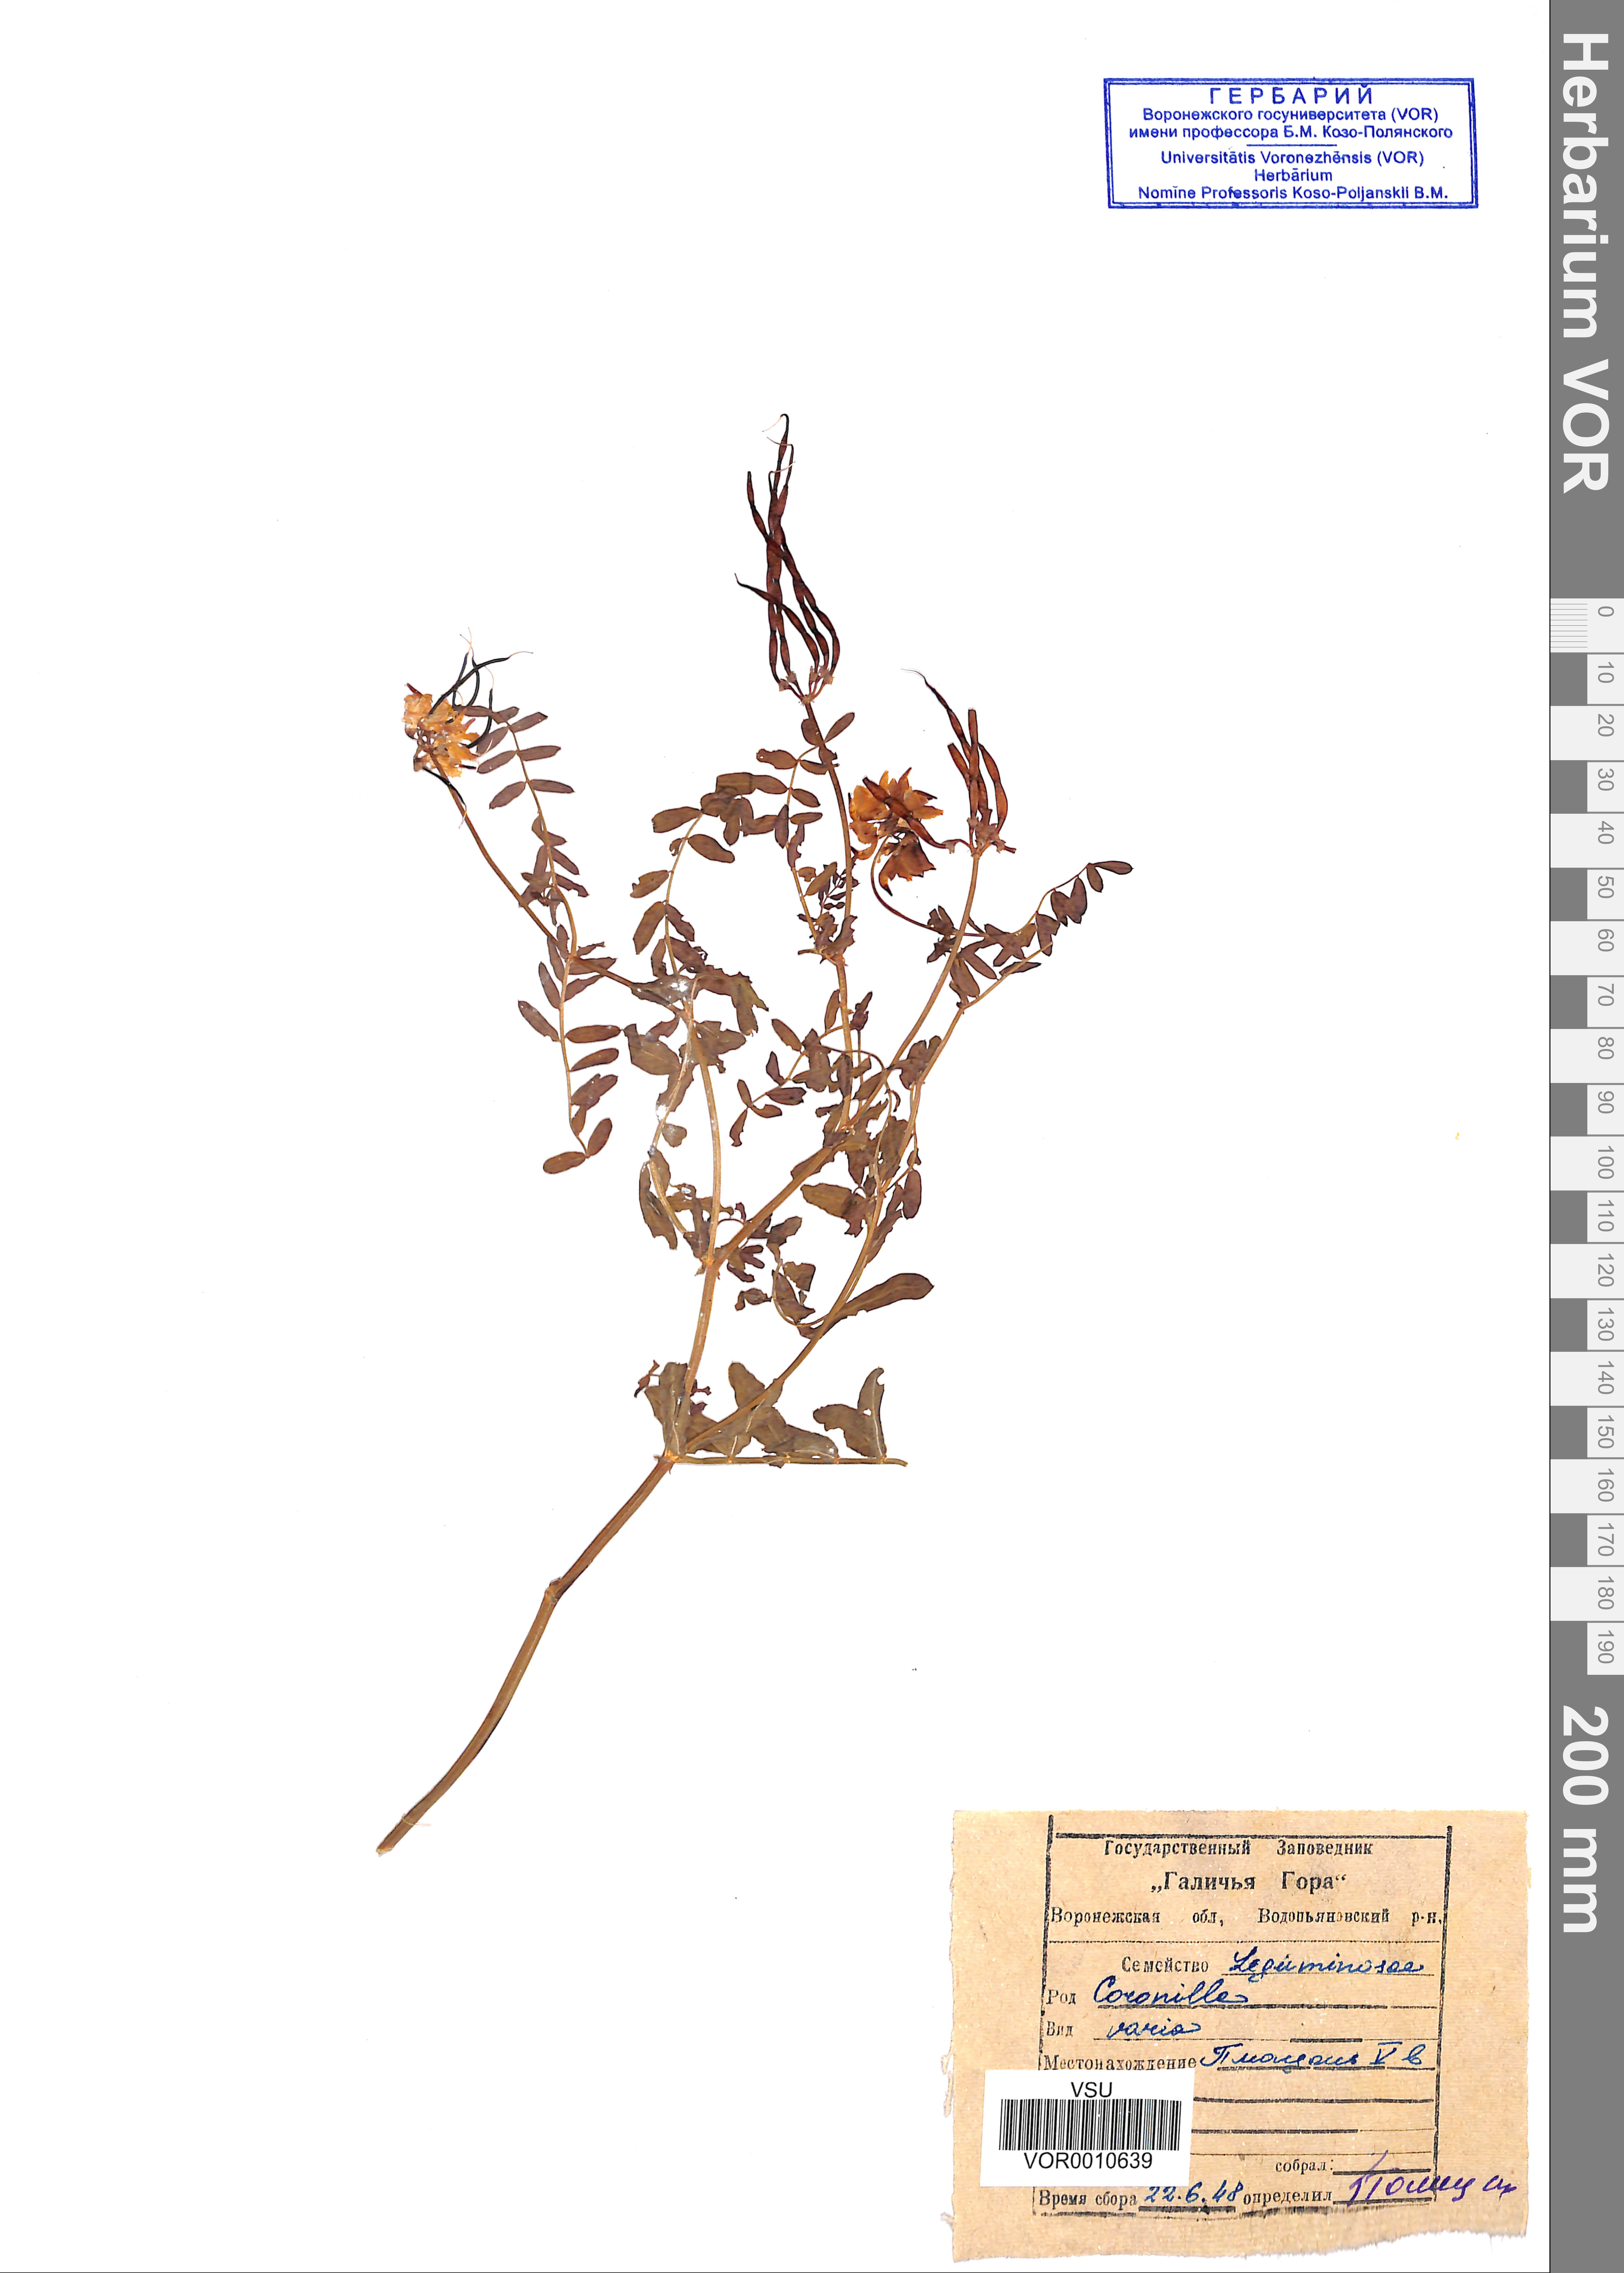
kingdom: Plantae
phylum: Tracheophyta
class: Magnoliopsida
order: Fabales
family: Fabaceae
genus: Coronilla
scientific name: Coronilla varia
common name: Crownvetch
